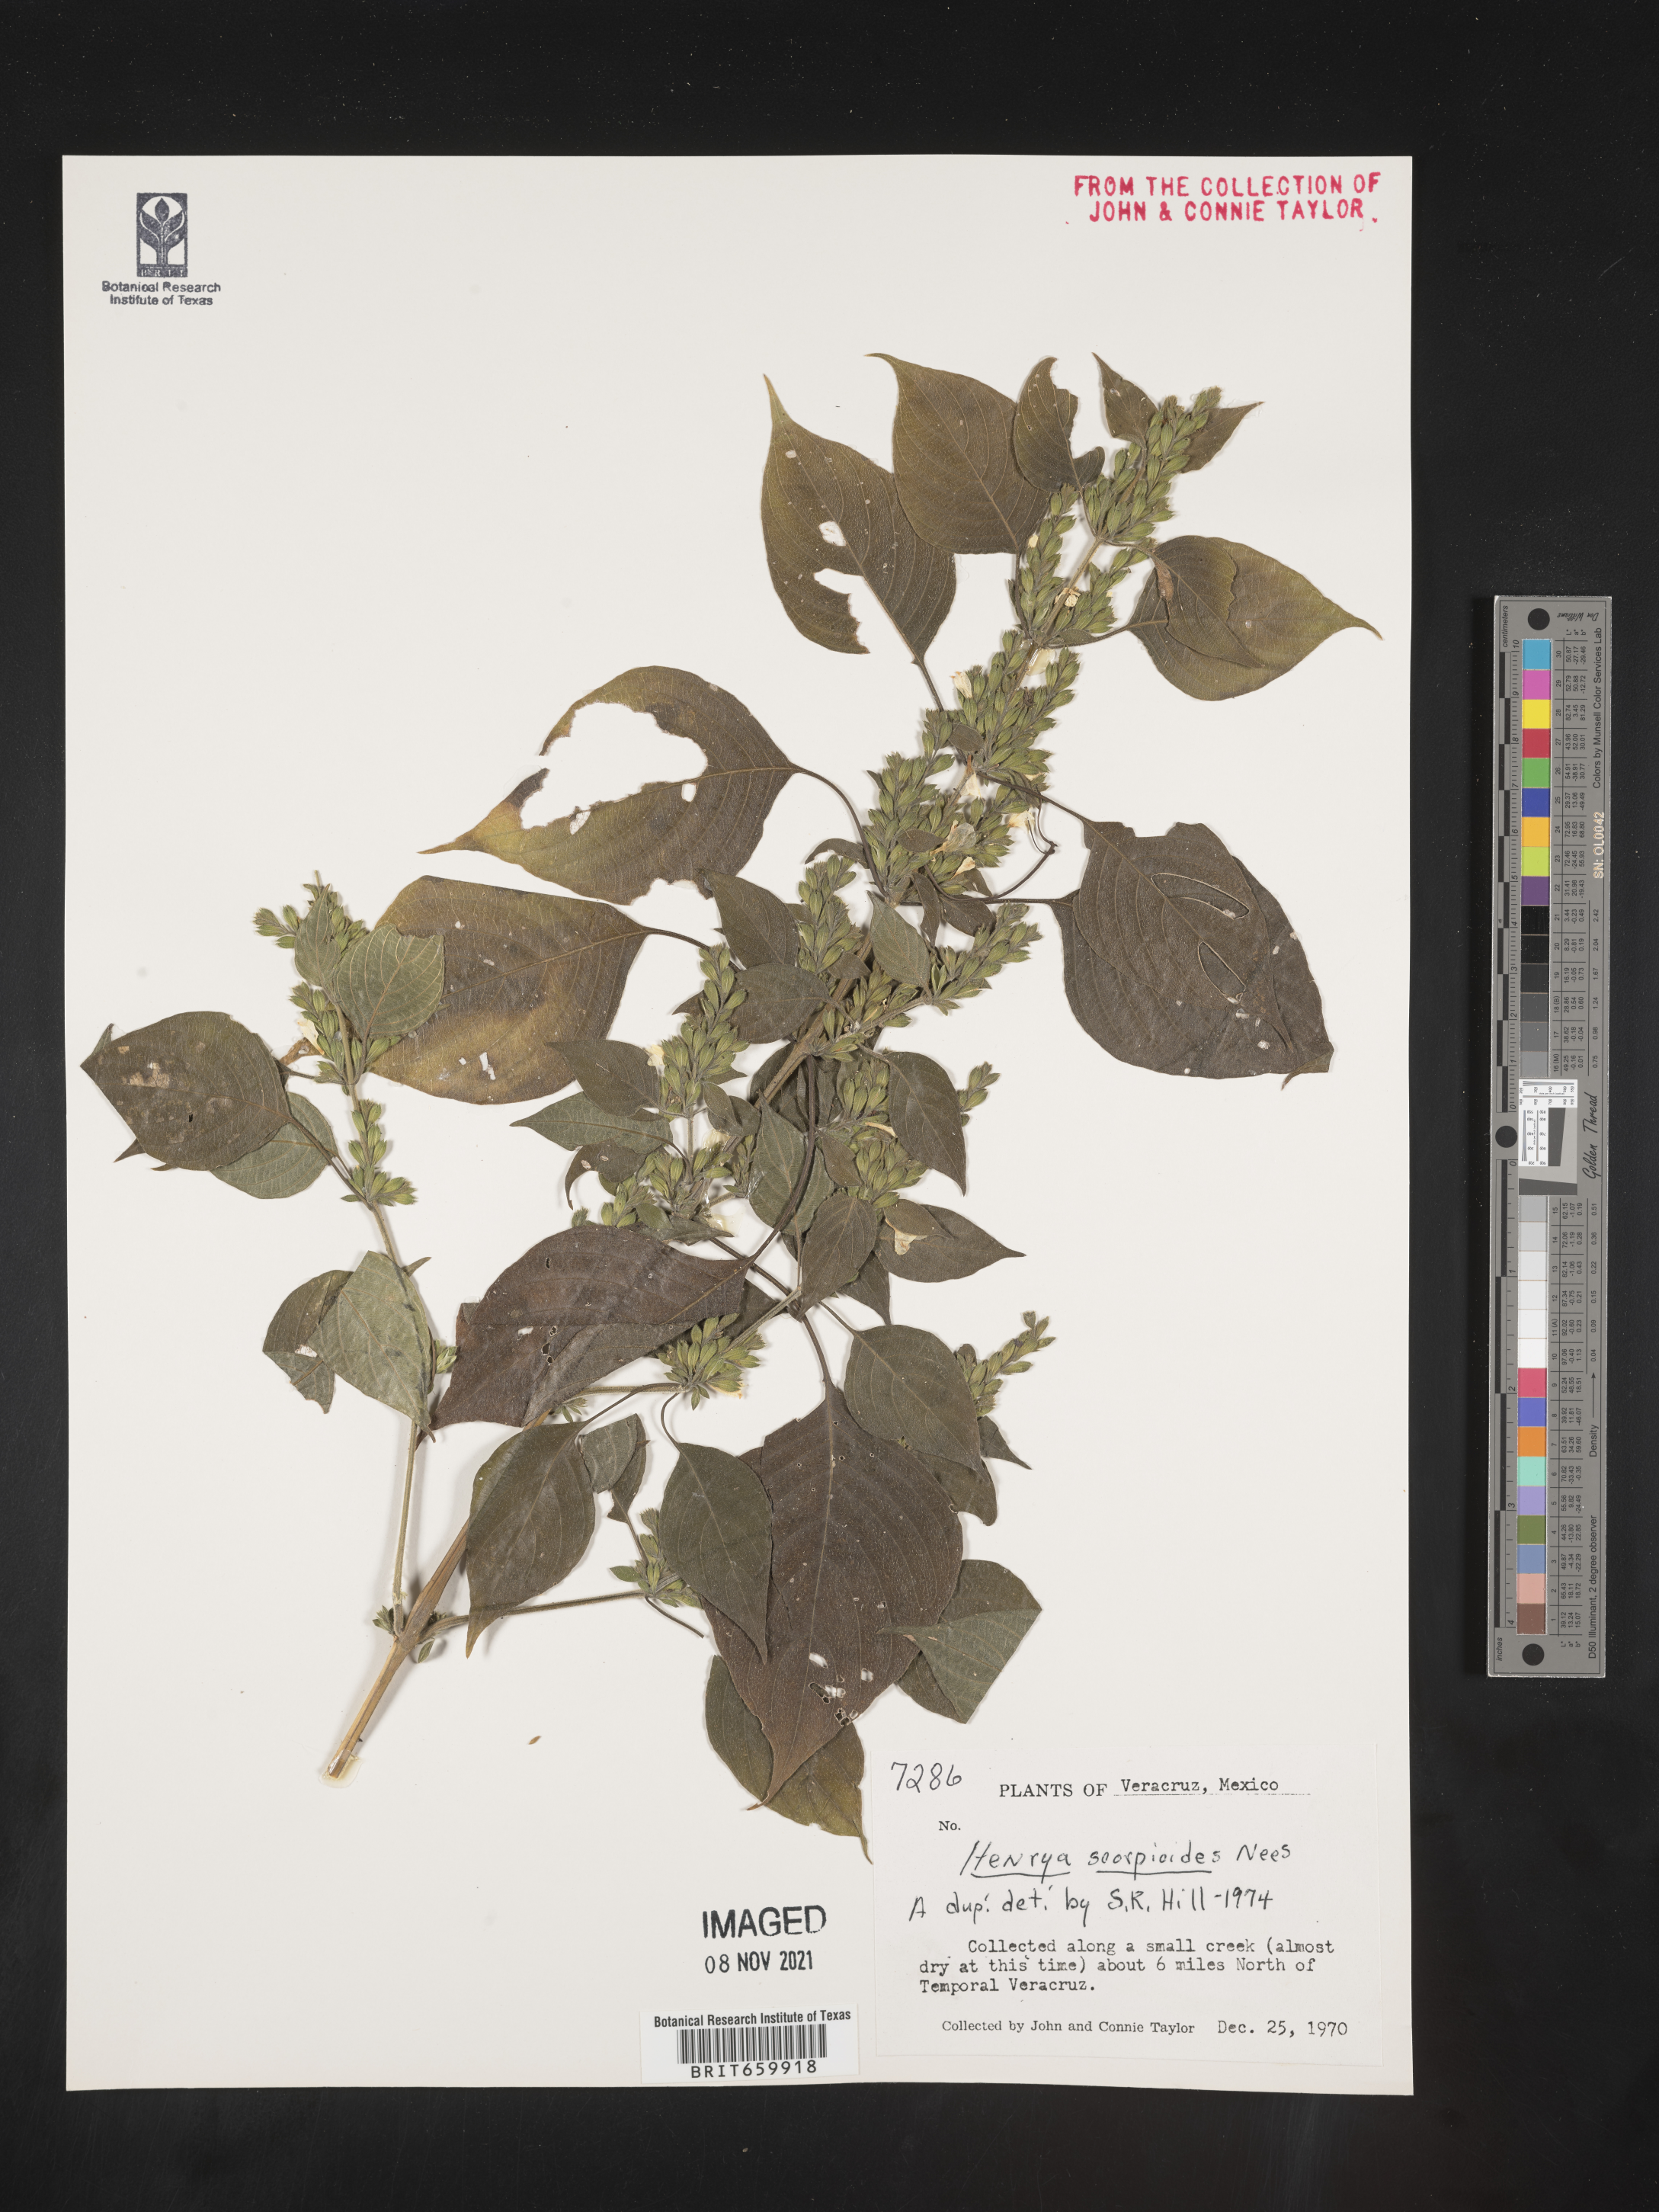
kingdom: Plantae
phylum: Tracheophyta
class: Magnoliopsida
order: Lamiales
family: Acanthaceae
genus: Henrya
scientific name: Henrya
